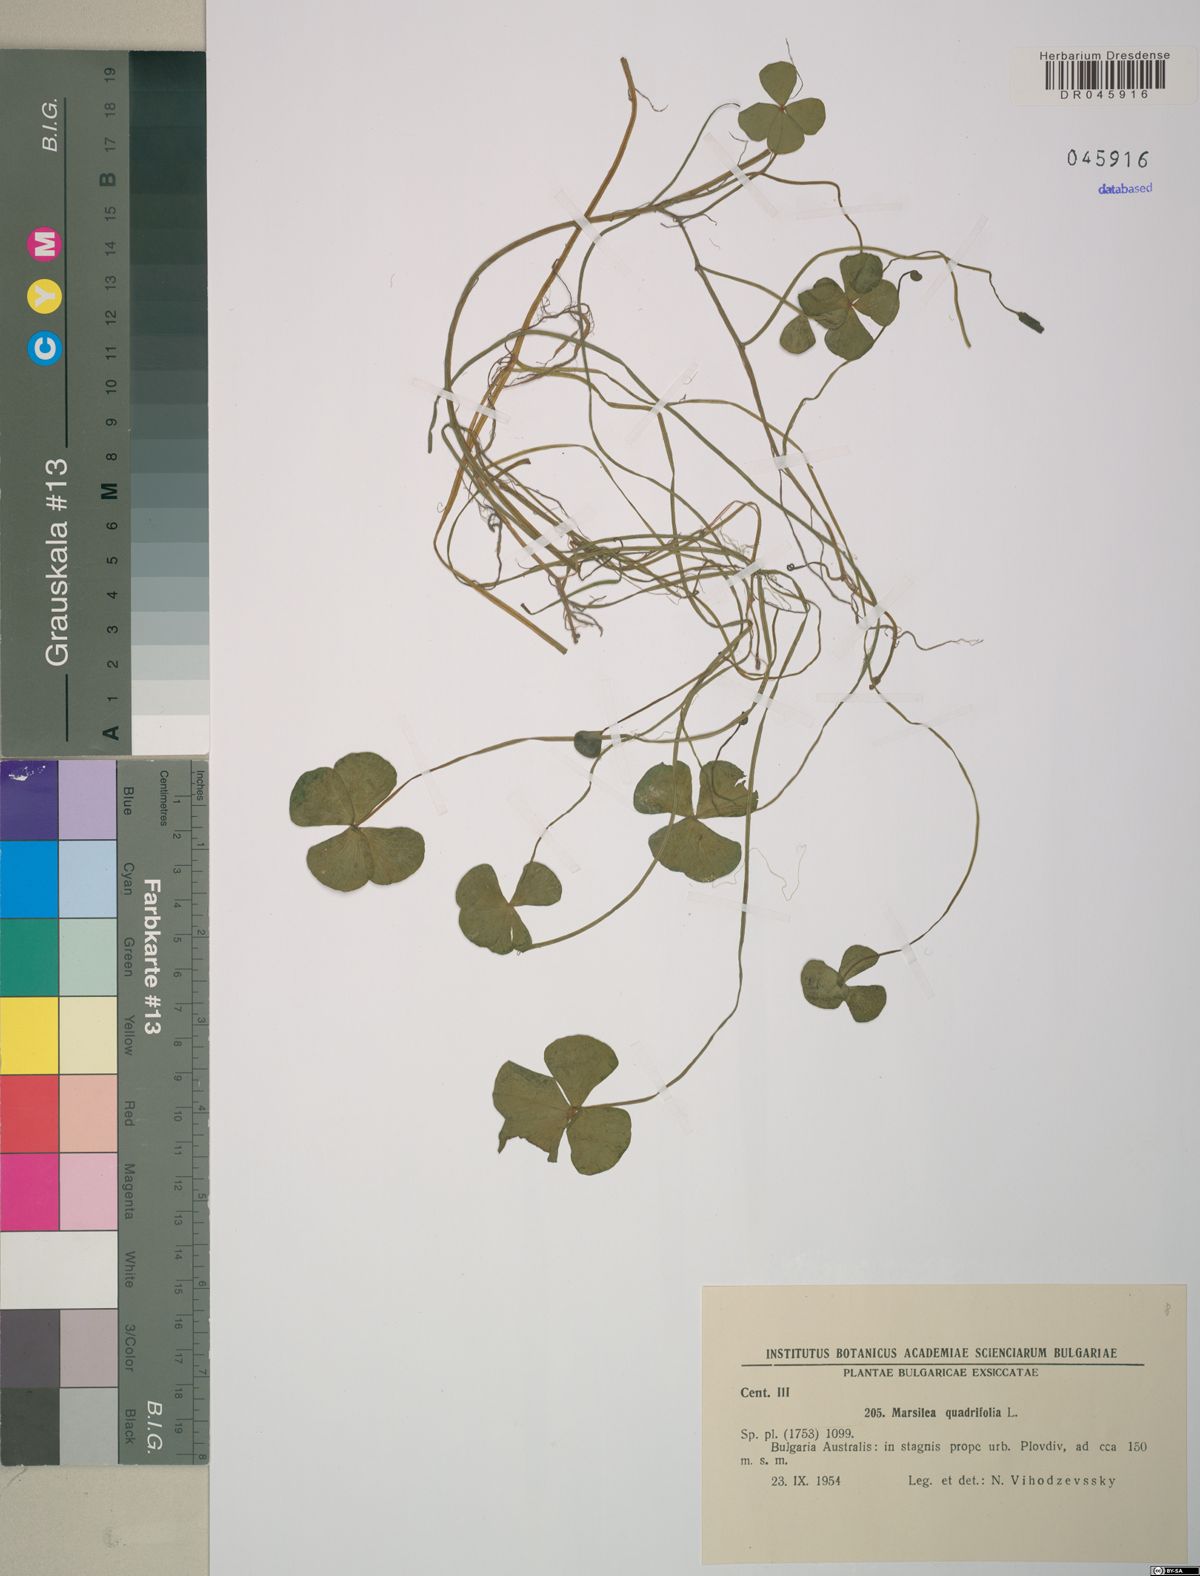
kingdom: Plantae
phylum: Tracheophyta
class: Polypodiopsida
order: Salviniales
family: Marsileaceae
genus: Marsilea
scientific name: Marsilea quadrifolia
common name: Water shamrock
